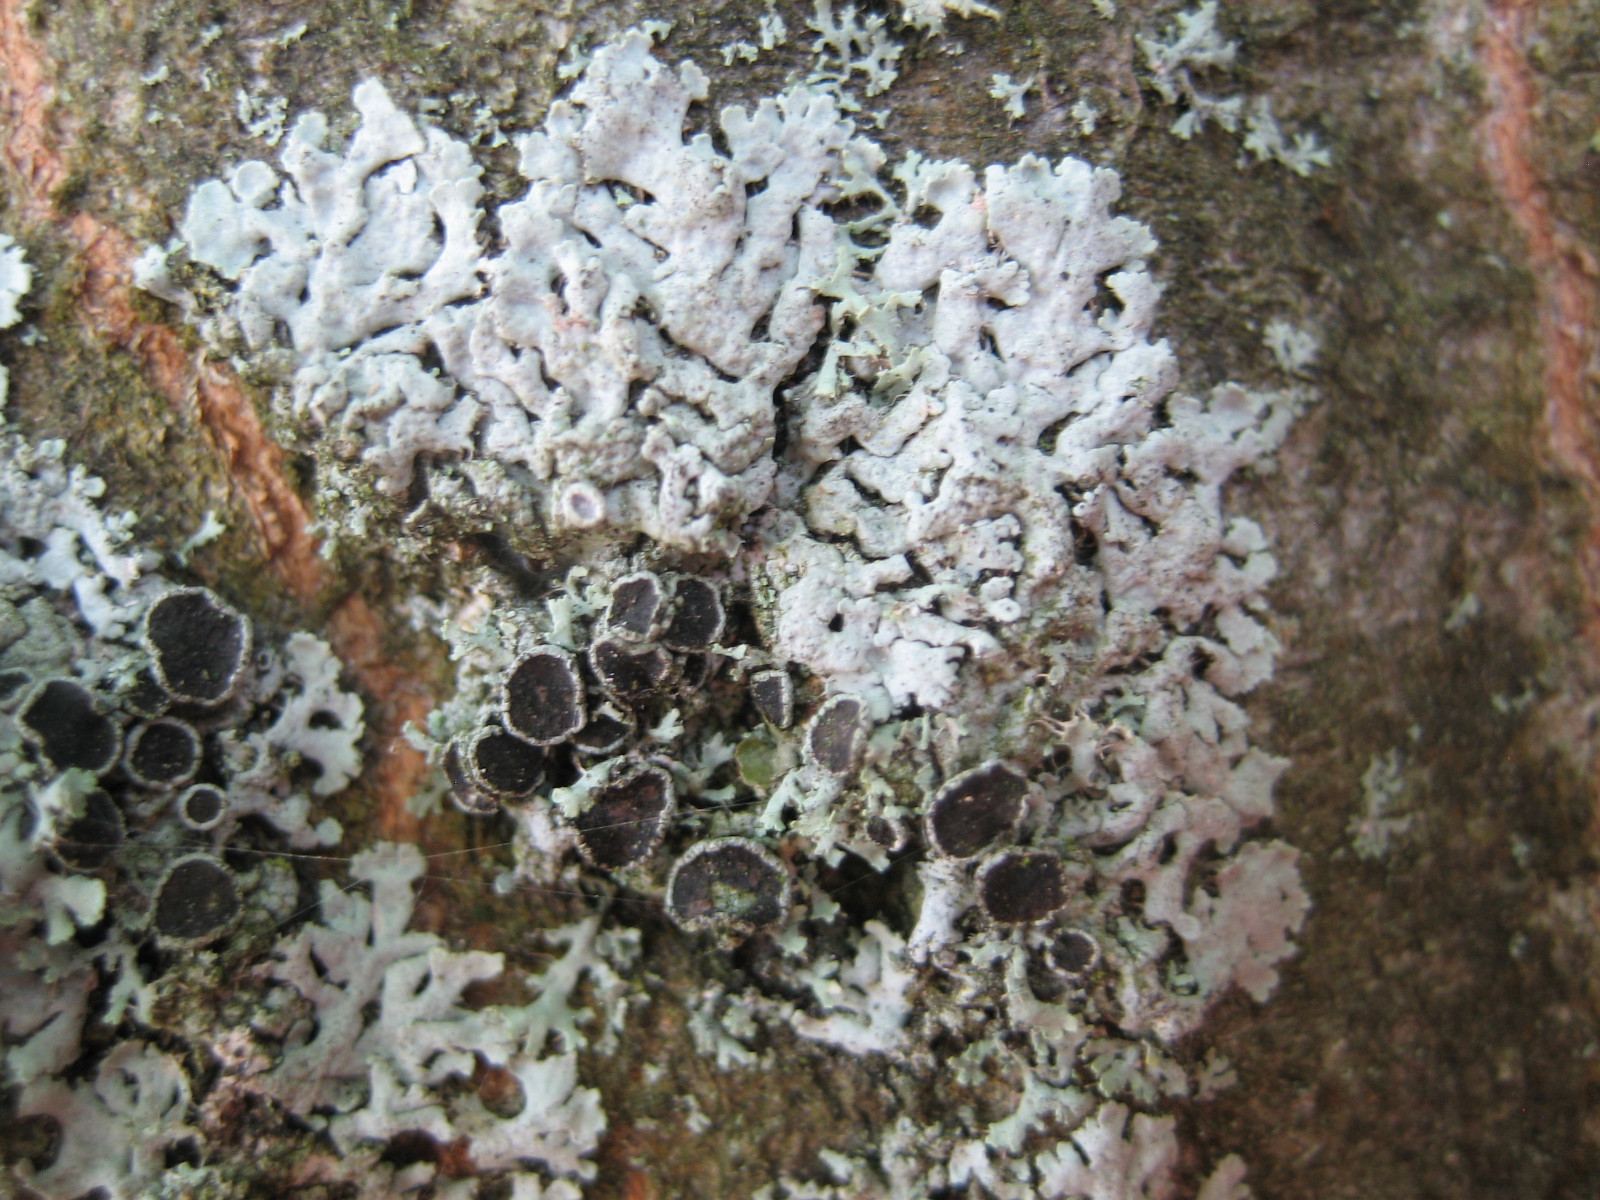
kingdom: Fungi
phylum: Ascomycota
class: Lecanoromycetes
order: Caliciales
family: Physciaceae
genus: Physcia
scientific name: Physcia stellaris
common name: stjerneformet rosetlav
